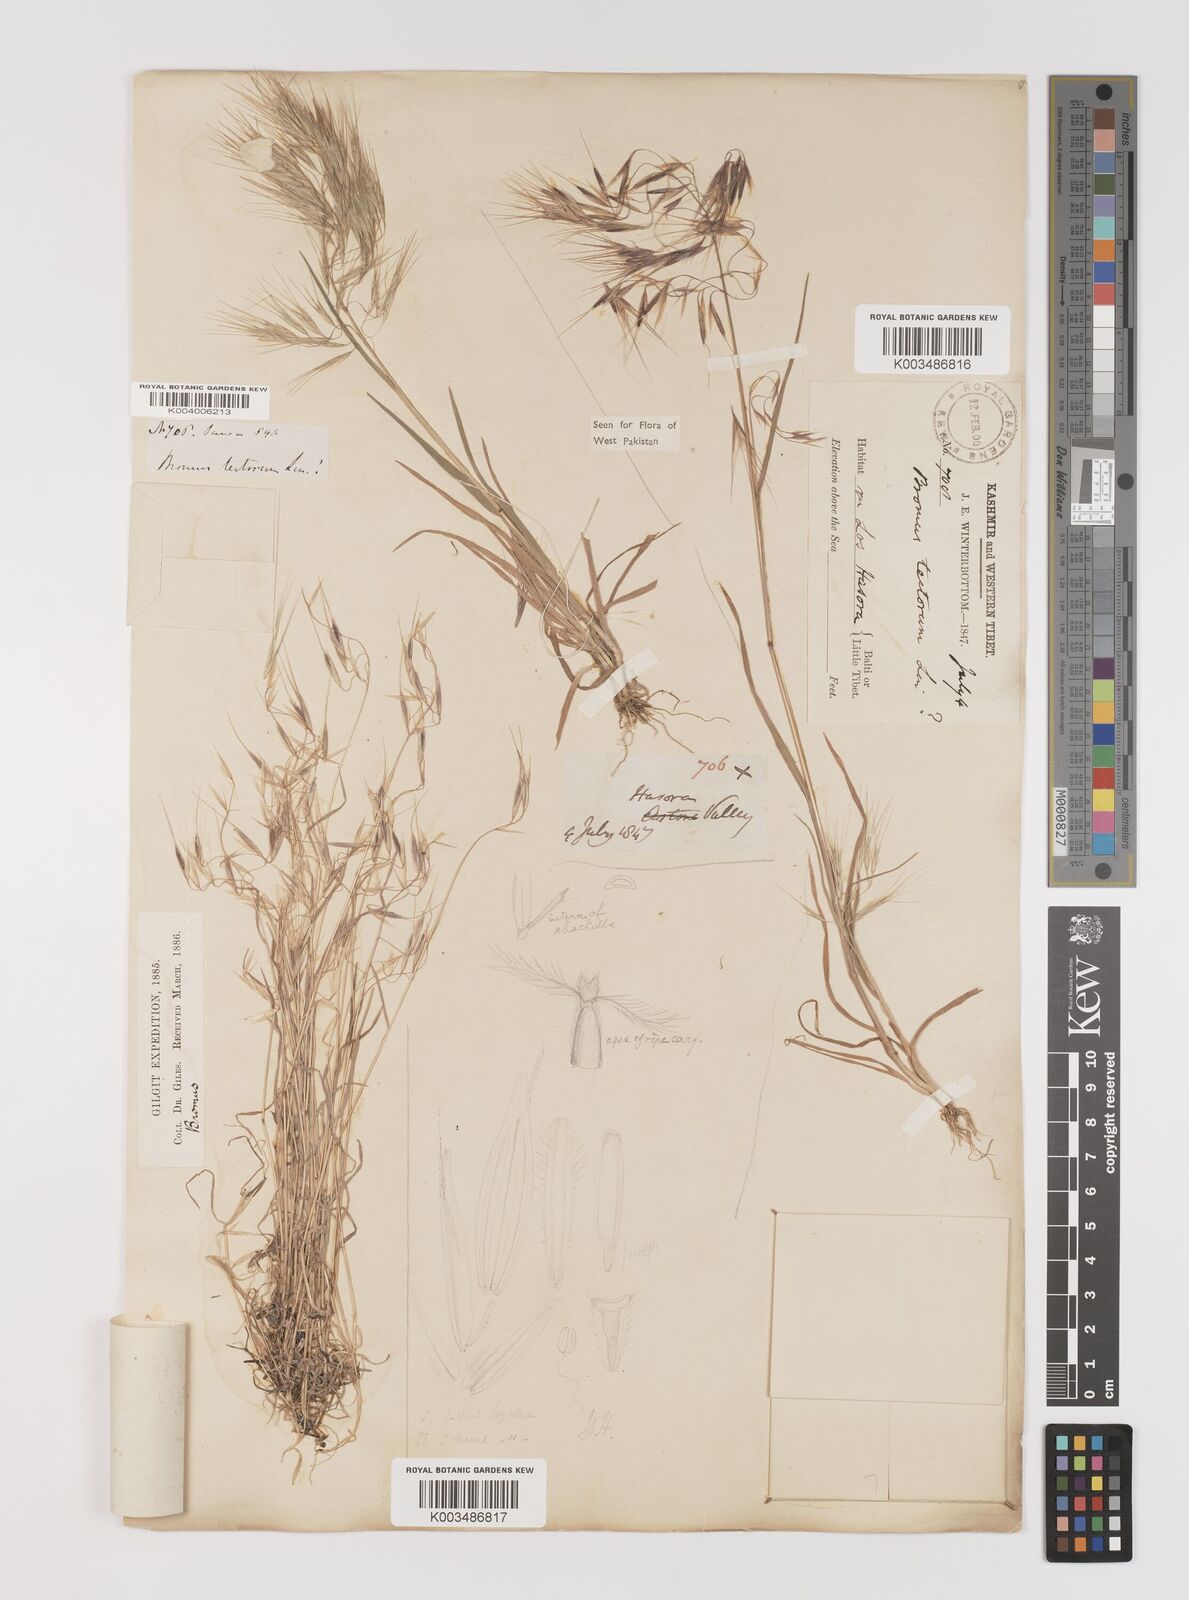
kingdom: Plantae
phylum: Tracheophyta
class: Liliopsida
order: Poales
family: Poaceae
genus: Bromus
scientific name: Bromus tectorum
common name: Cheatgrass
